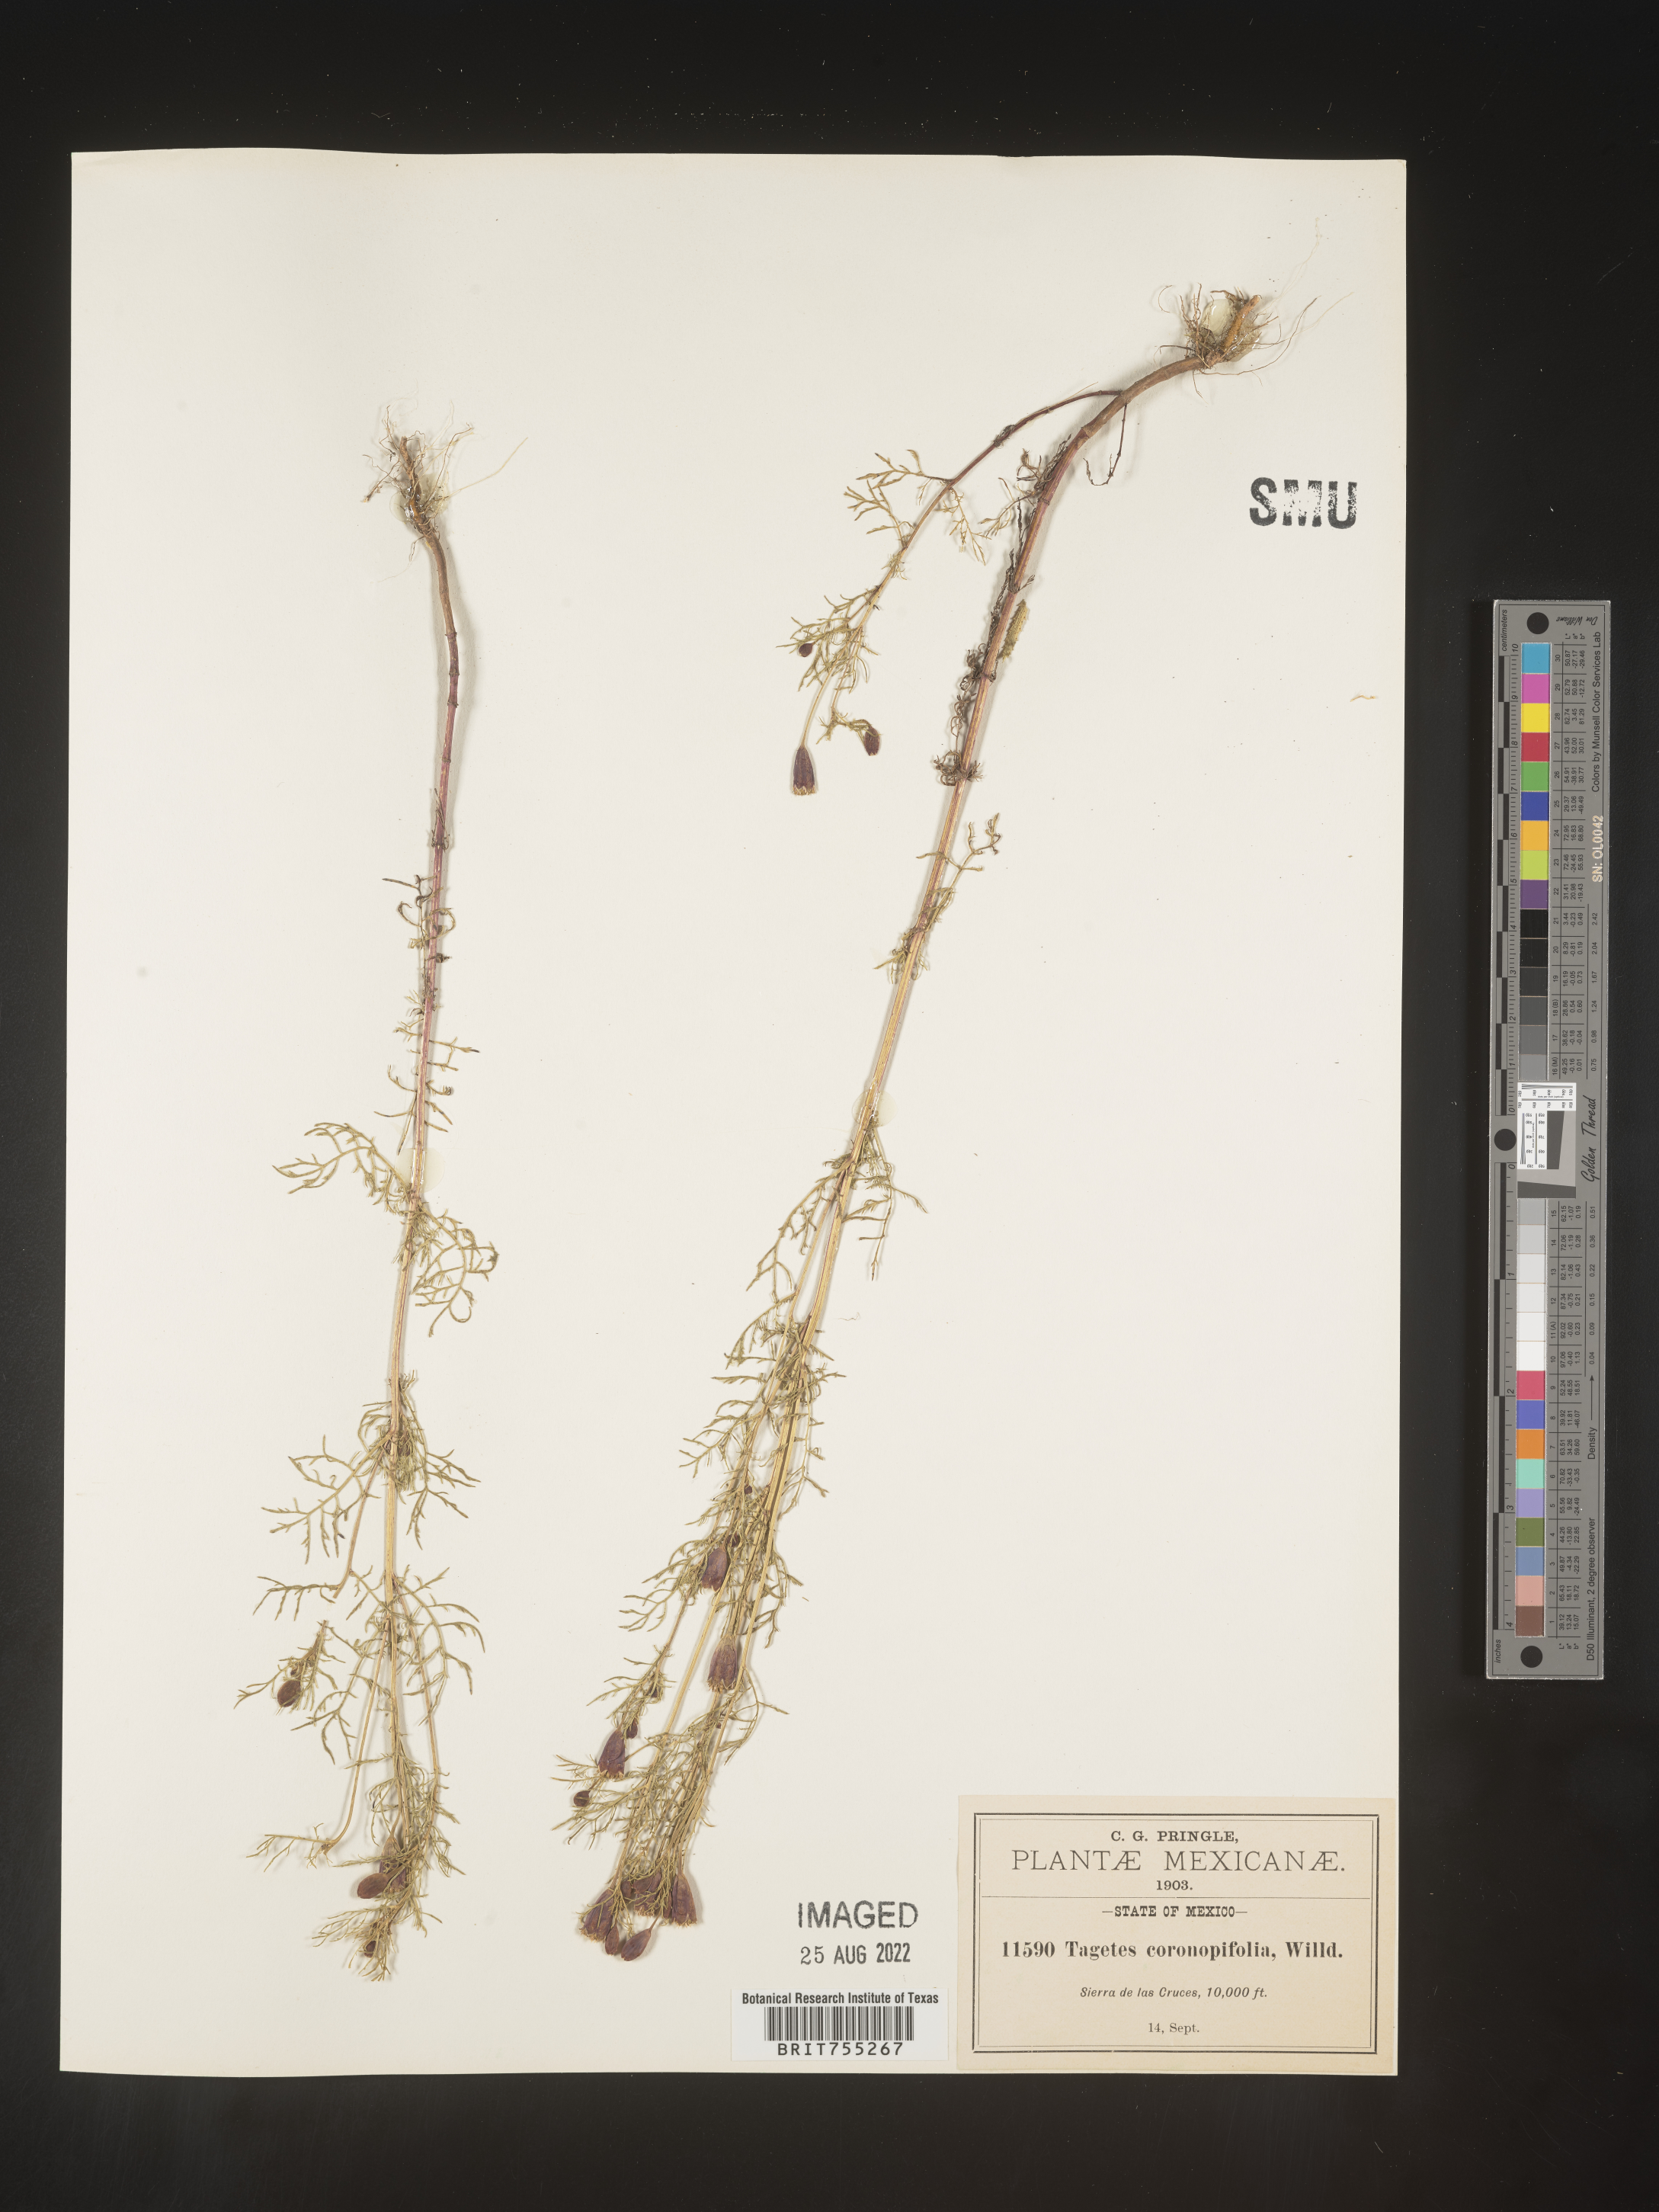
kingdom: Plantae
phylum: Tracheophyta
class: Magnoliopsida
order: Asterales
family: Asteraceae
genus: Tagetes
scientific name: Tagetes lucida
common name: Sweetscented marigold
